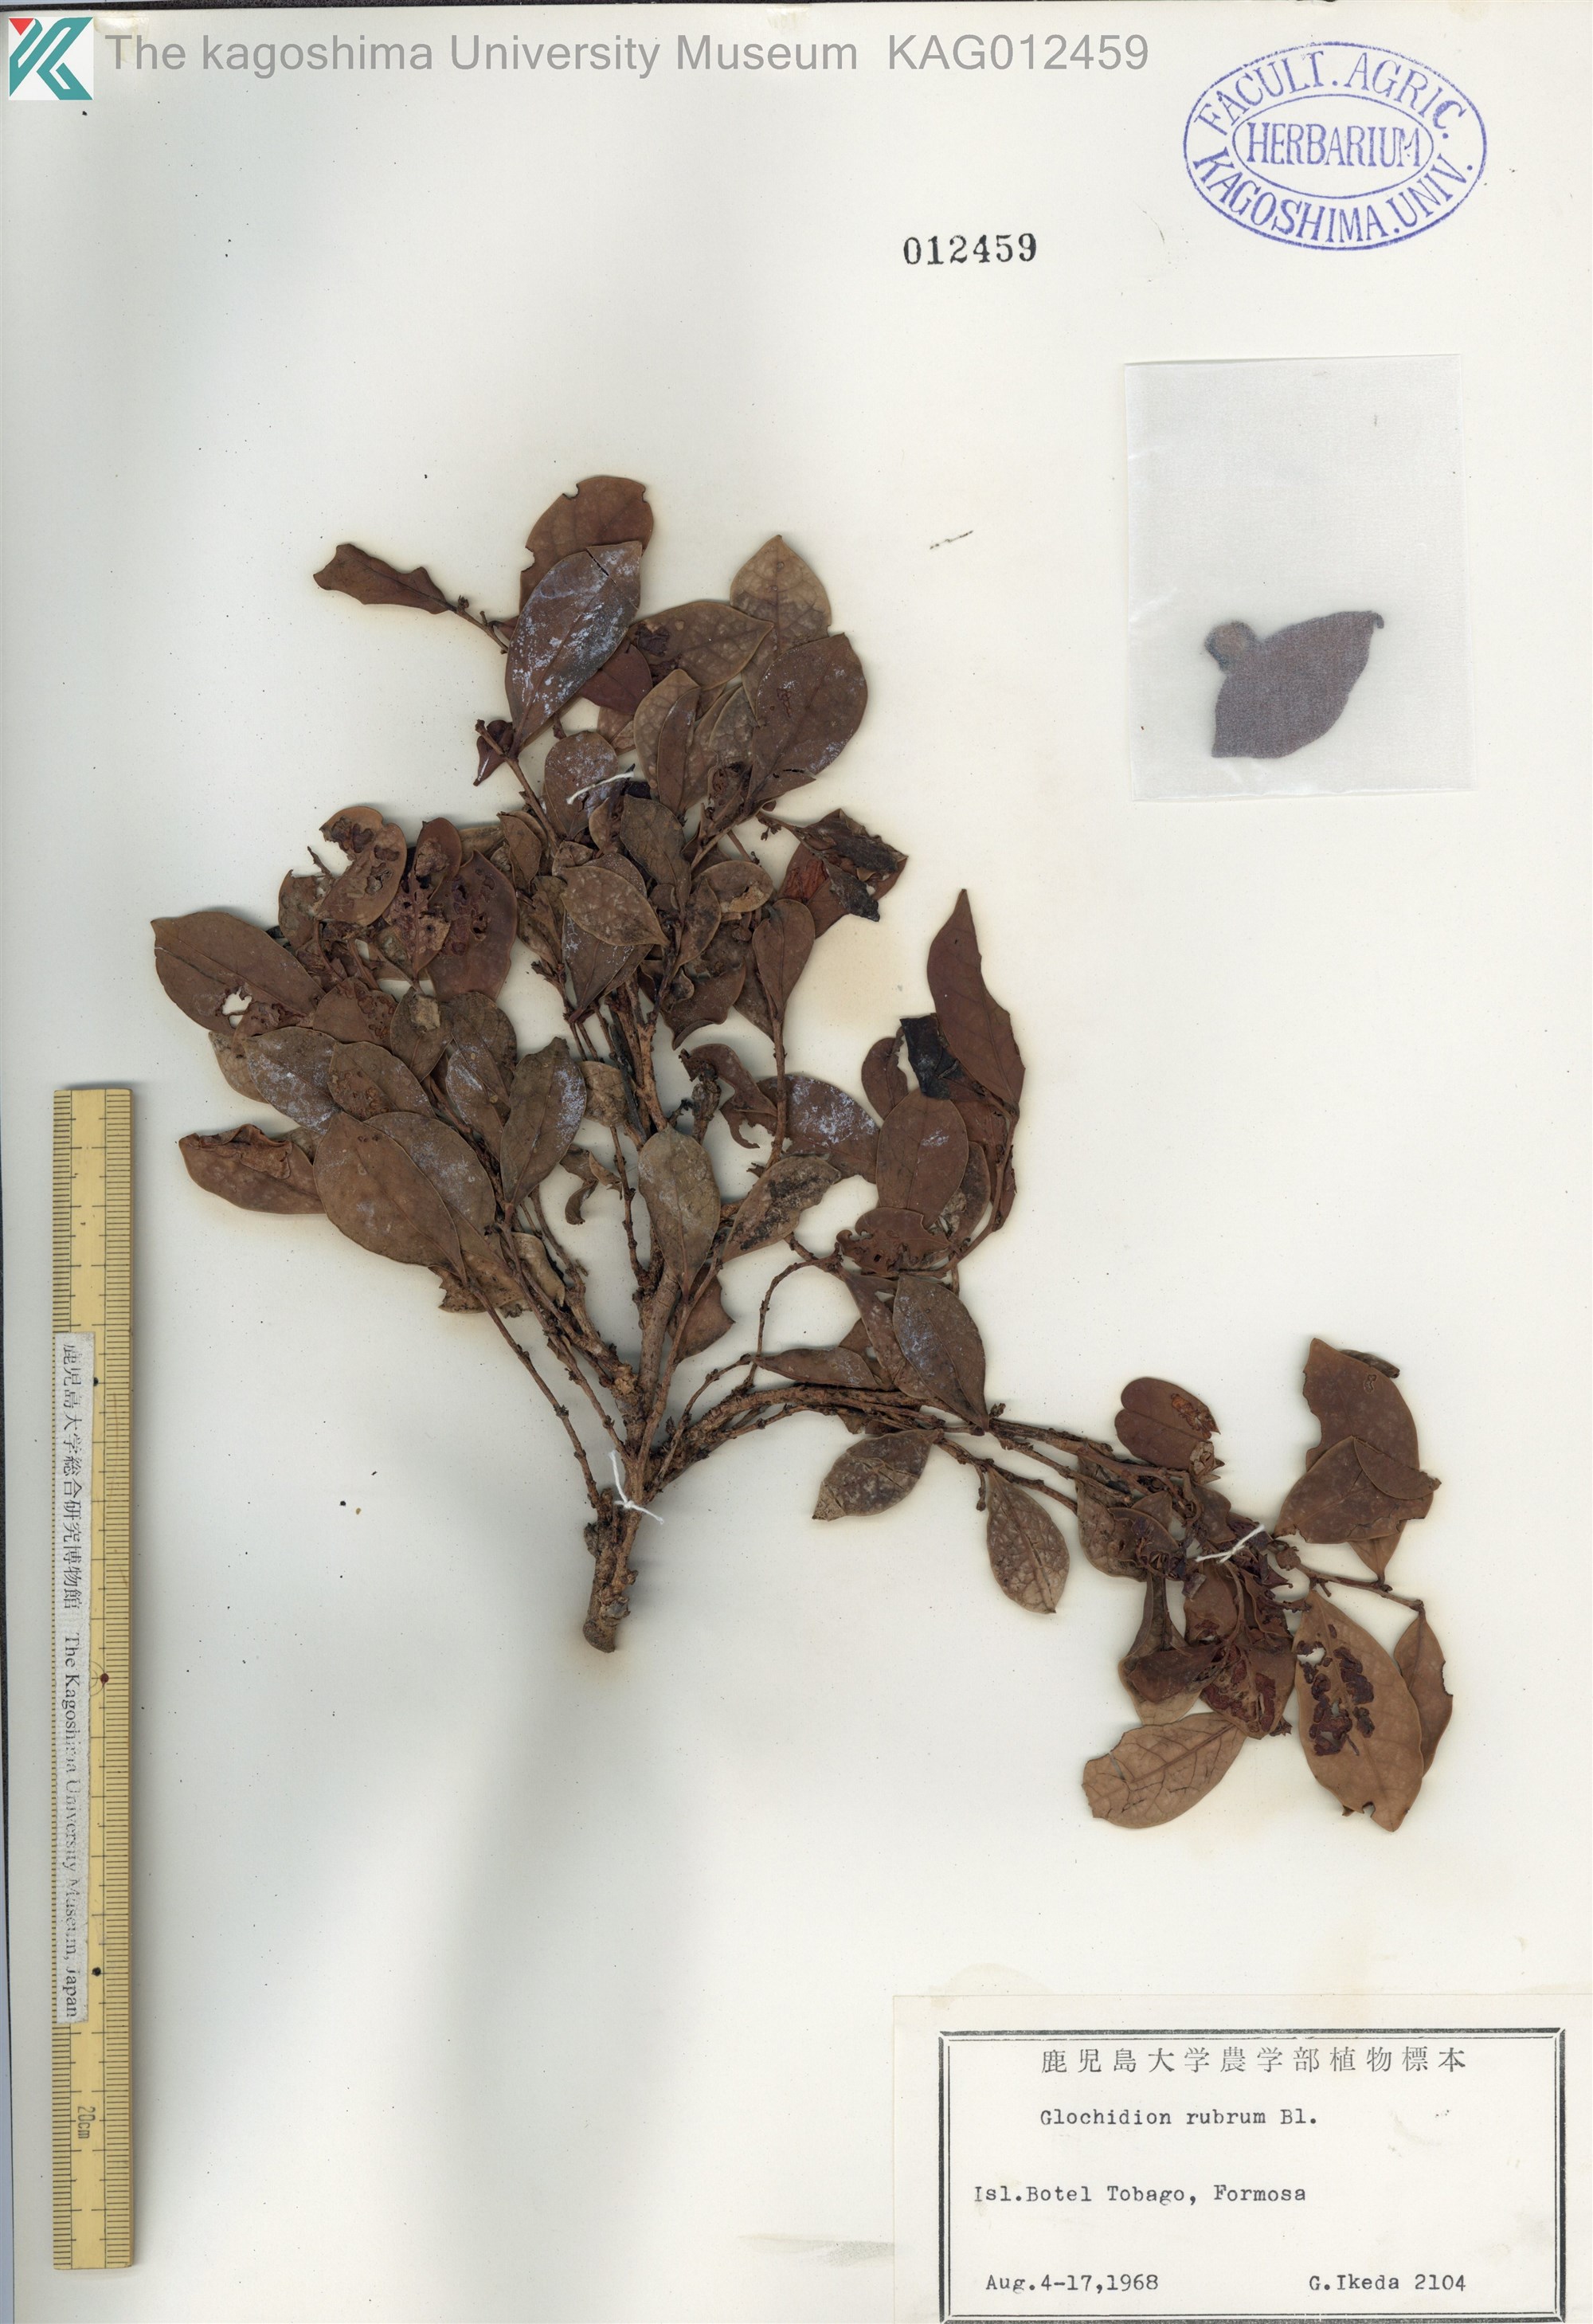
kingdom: Plantae
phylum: Tracheophyta
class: Magnoliopsida
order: Malpighiales
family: Phyllanthaceae
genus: Glochidion
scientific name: Glochidion rubrum
